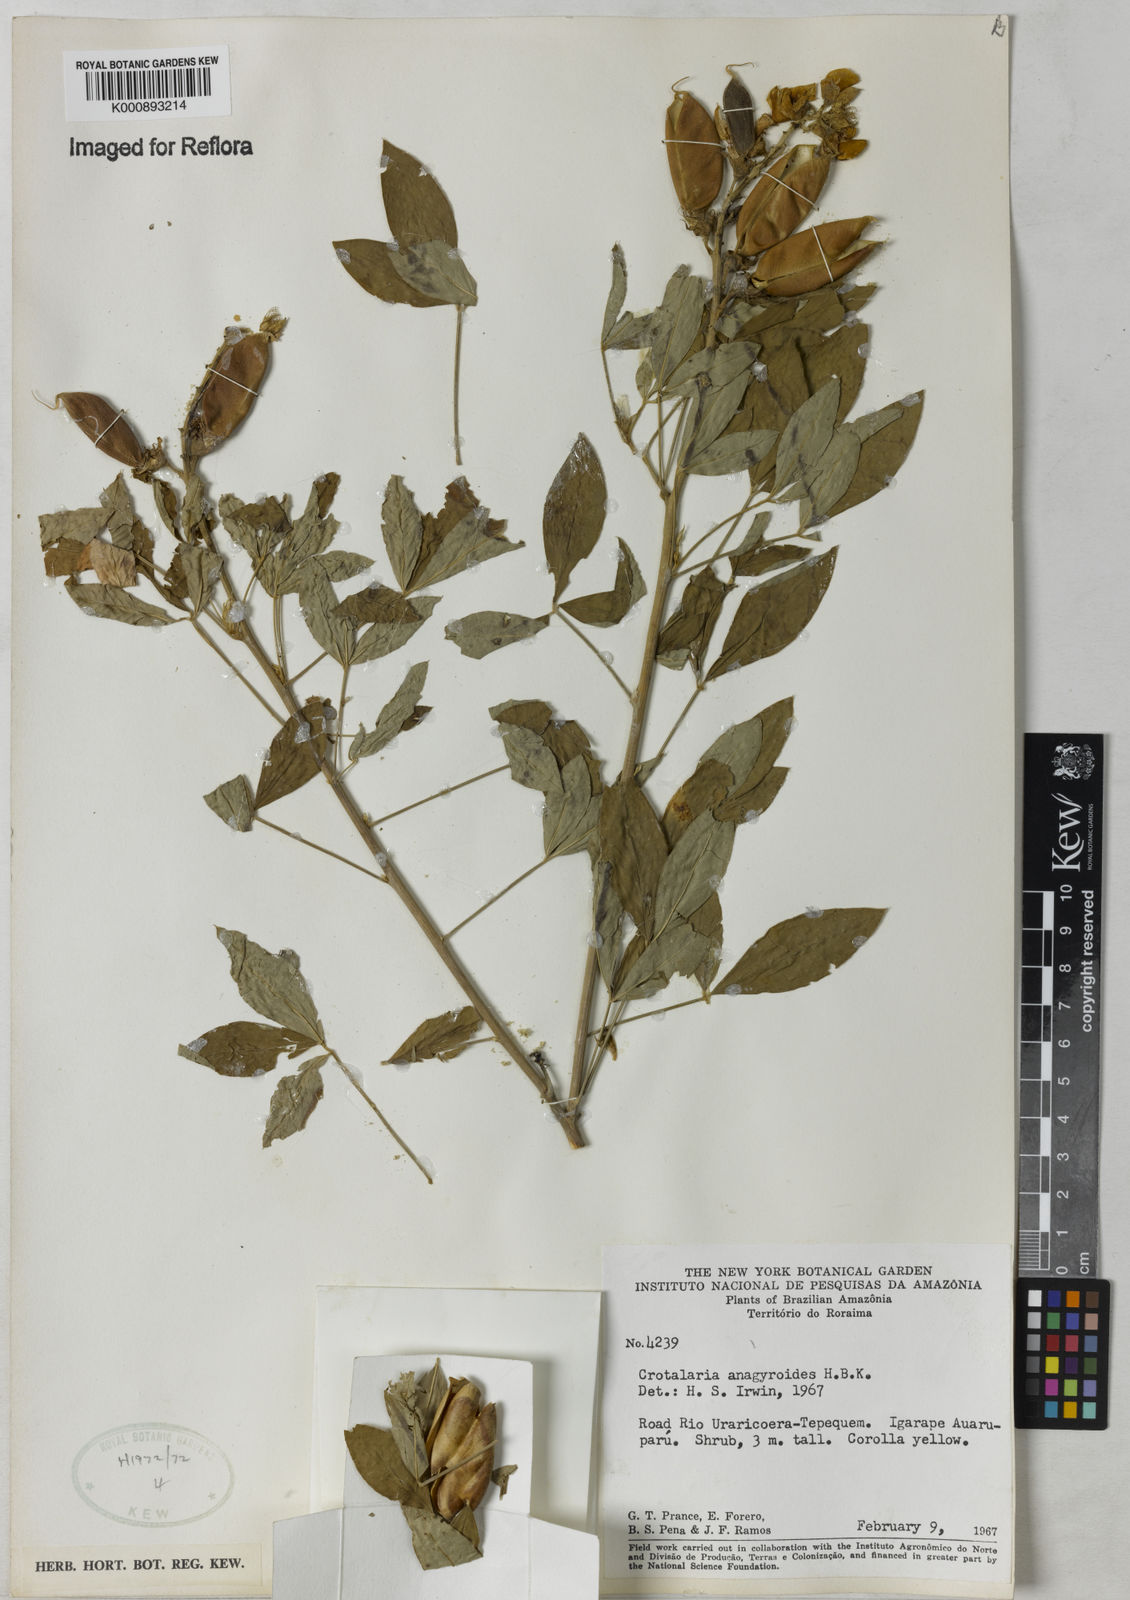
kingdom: Plantae
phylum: Tracheophyta
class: Magnoliopsida
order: Fabales
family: Fabaceae
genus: Crotalaria
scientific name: Crotalaria micans
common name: Caracas rattlebox
